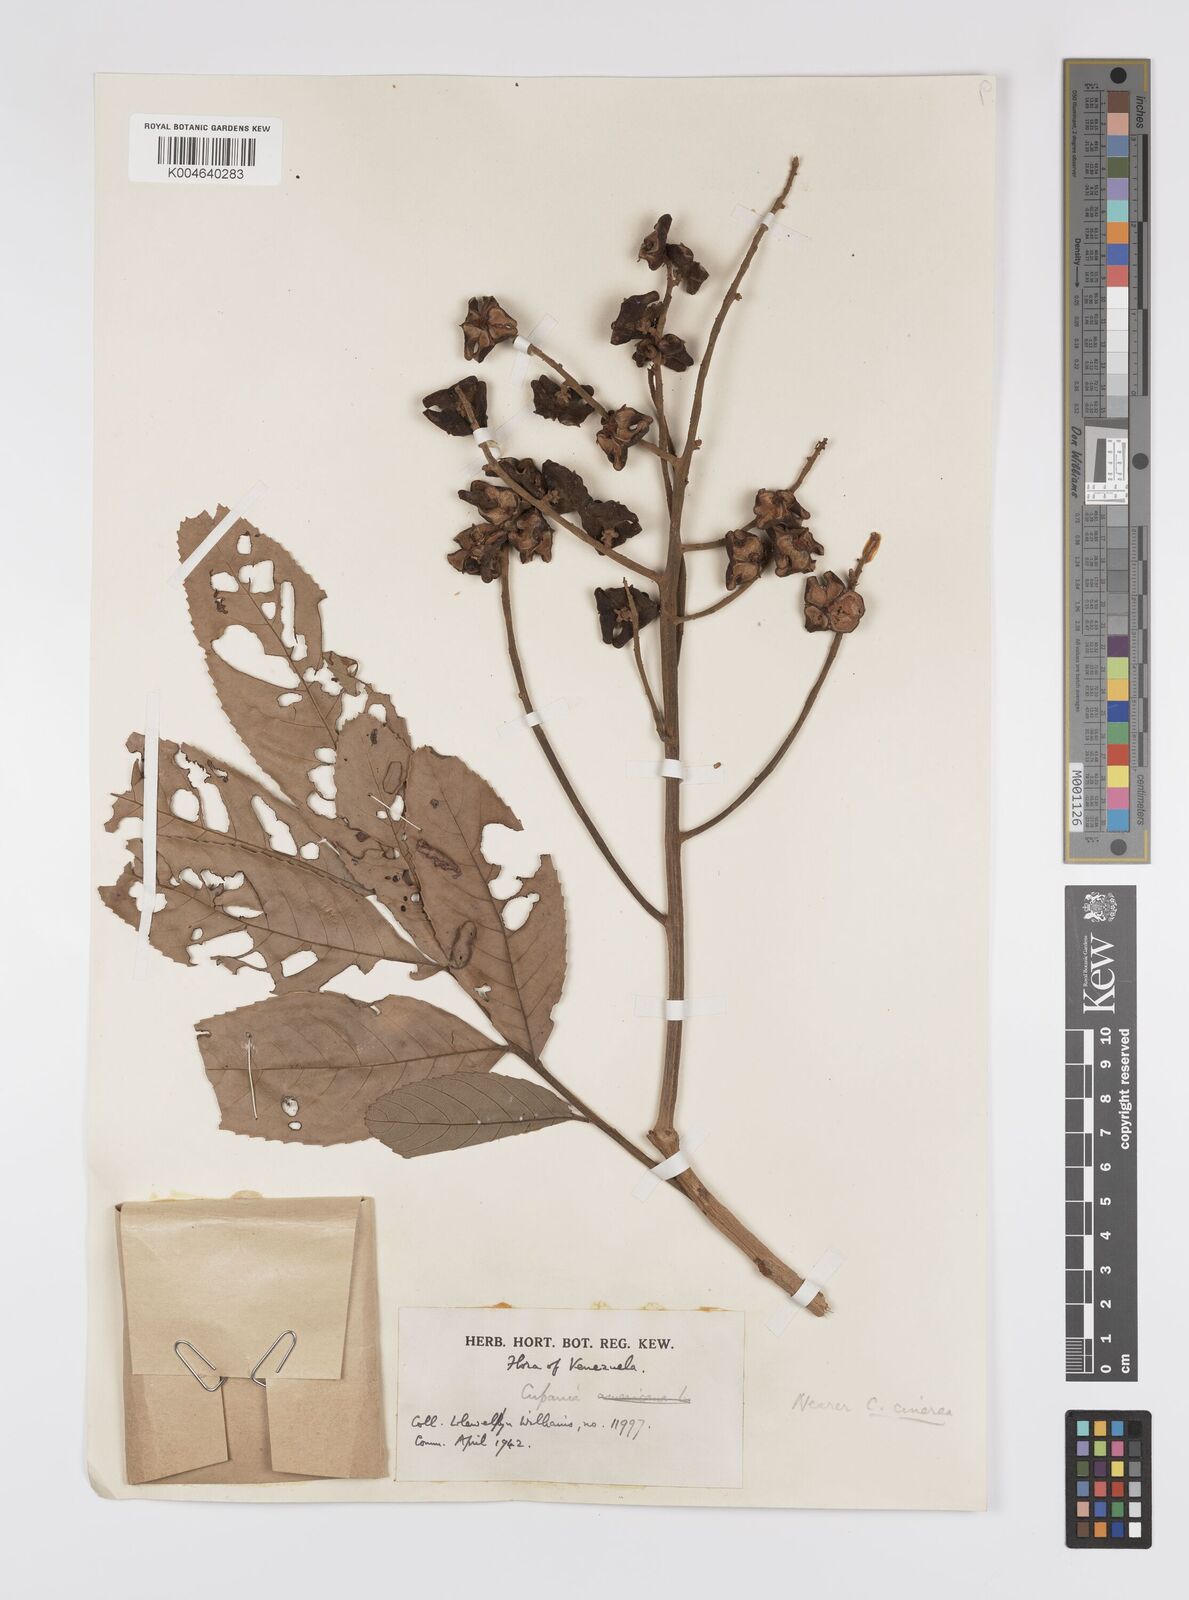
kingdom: Plantae
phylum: Tracheophyta
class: Magnoliopsida
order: Sapindales
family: Sapindaceae
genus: Cupania
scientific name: Cupania
